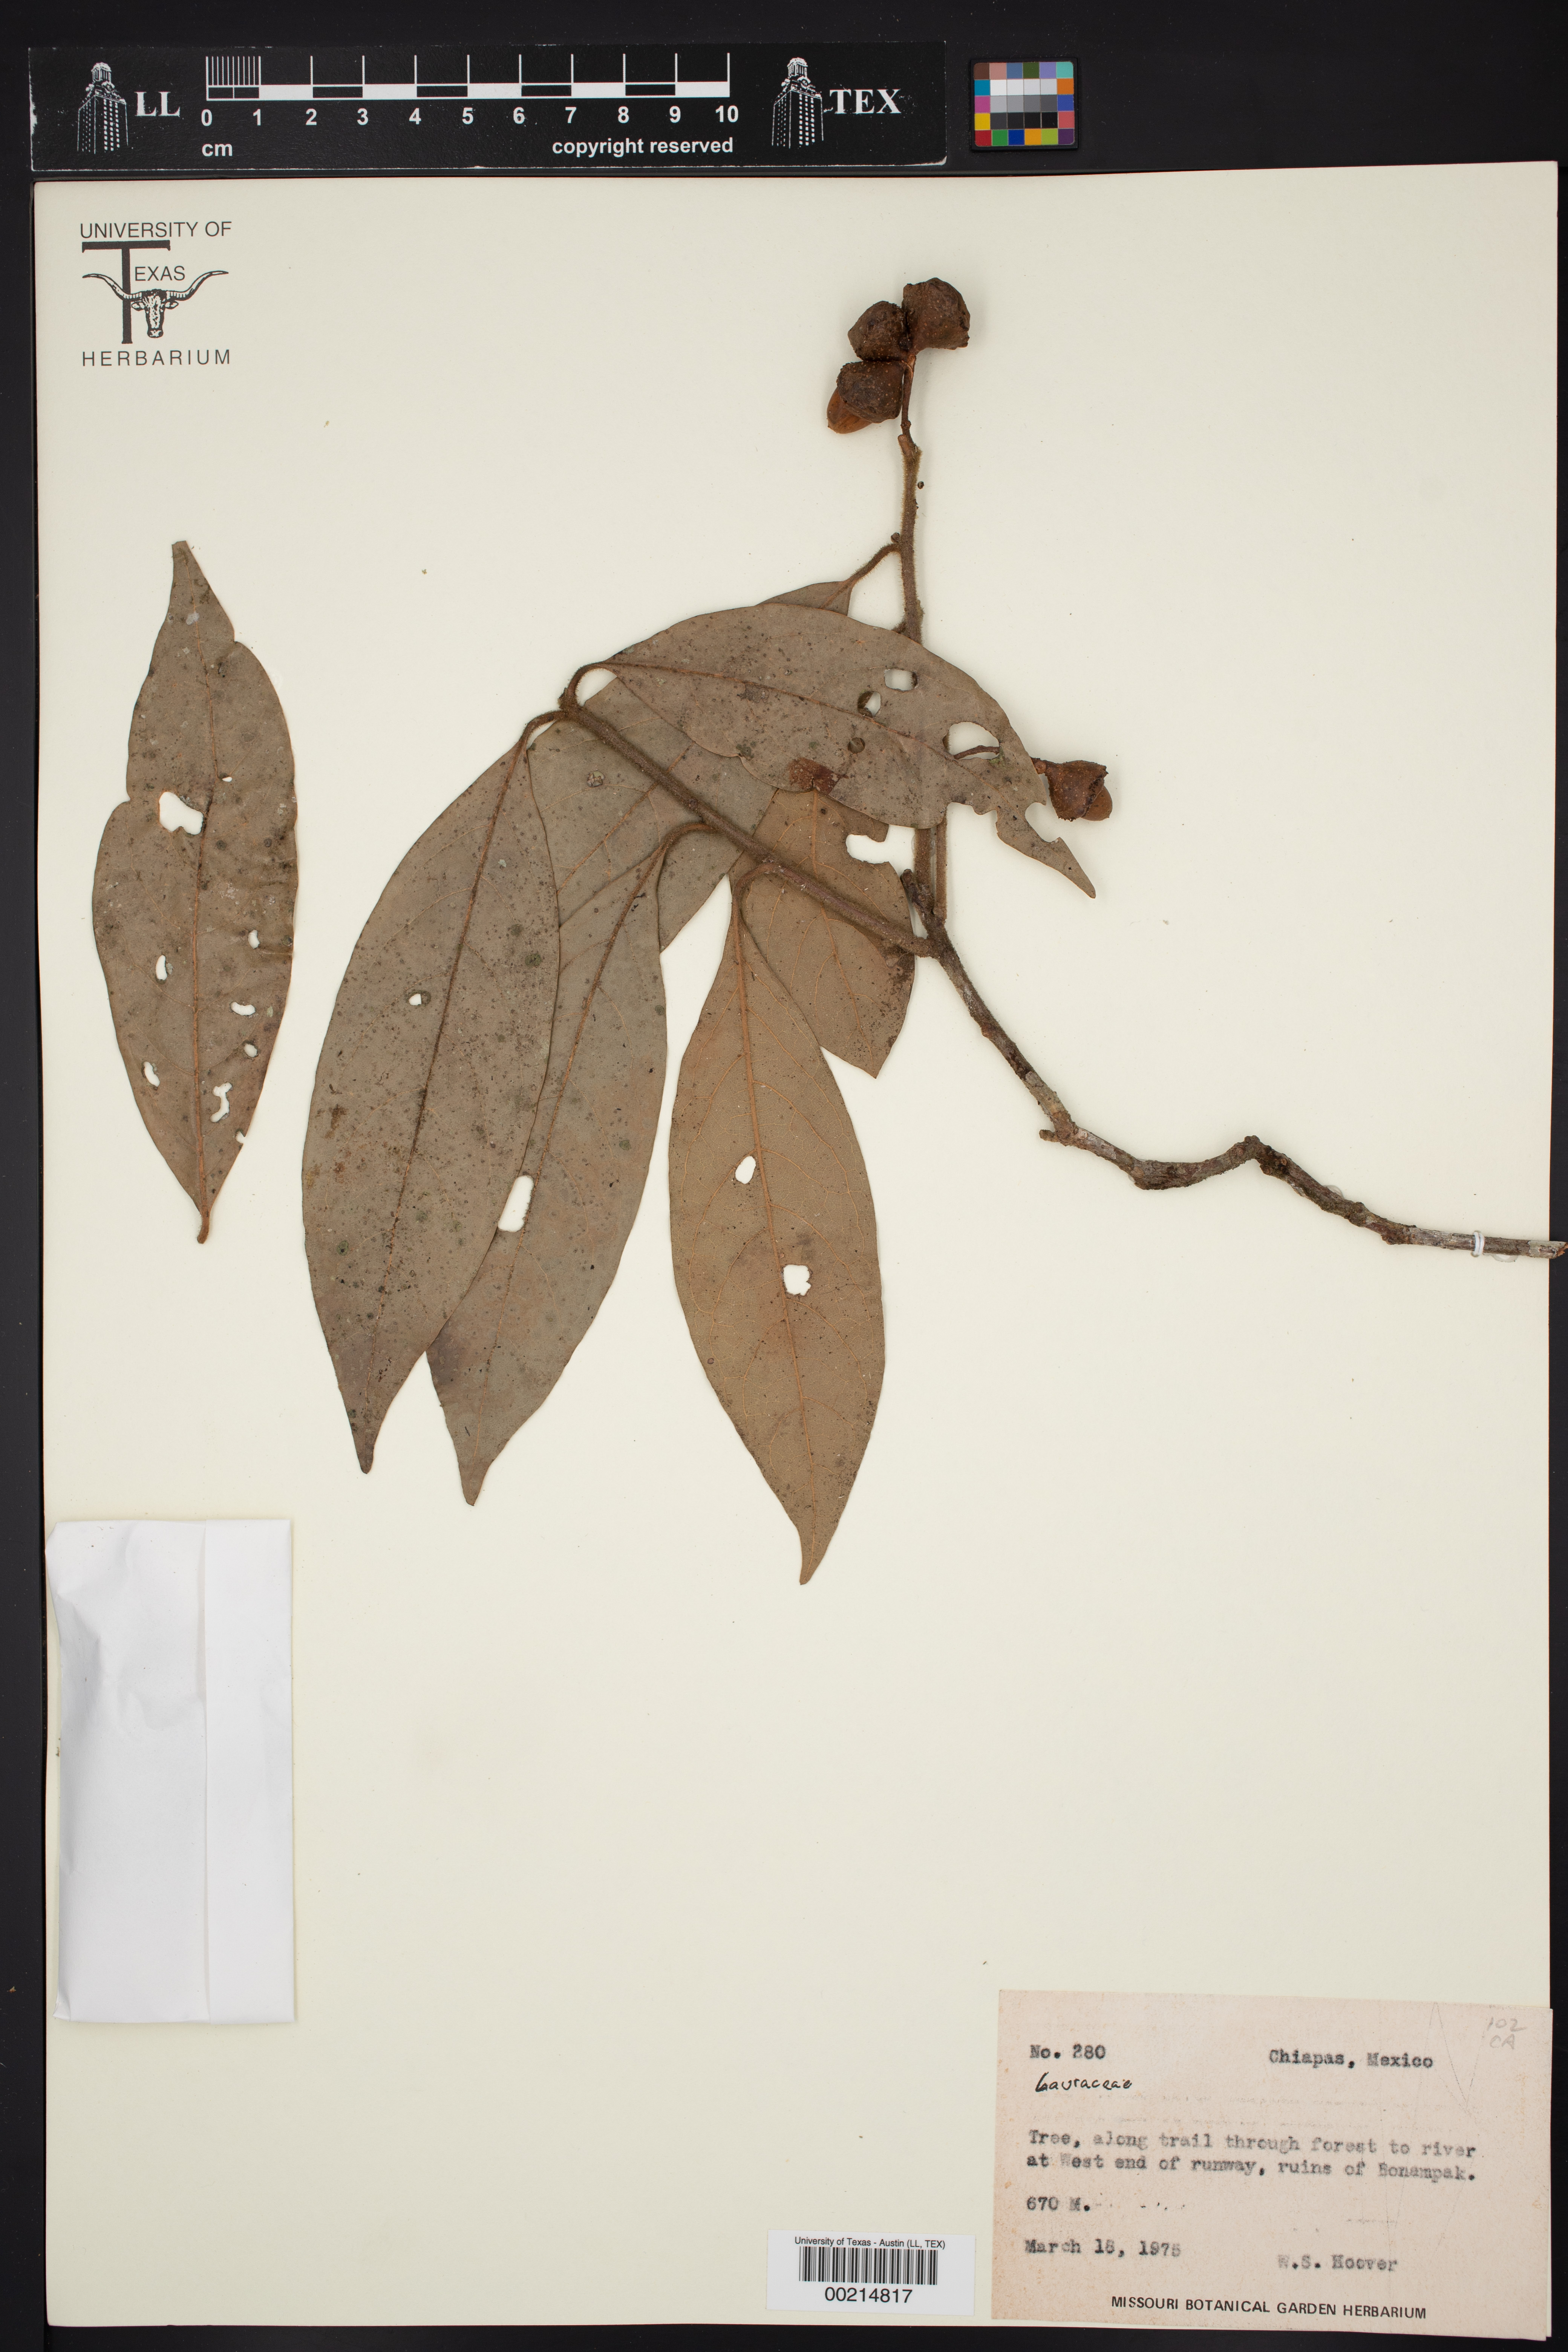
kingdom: Plantae
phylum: Tracheophyta
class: Magnoliopsida
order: Laurales
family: Lauraceae
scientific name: Lauraceae
